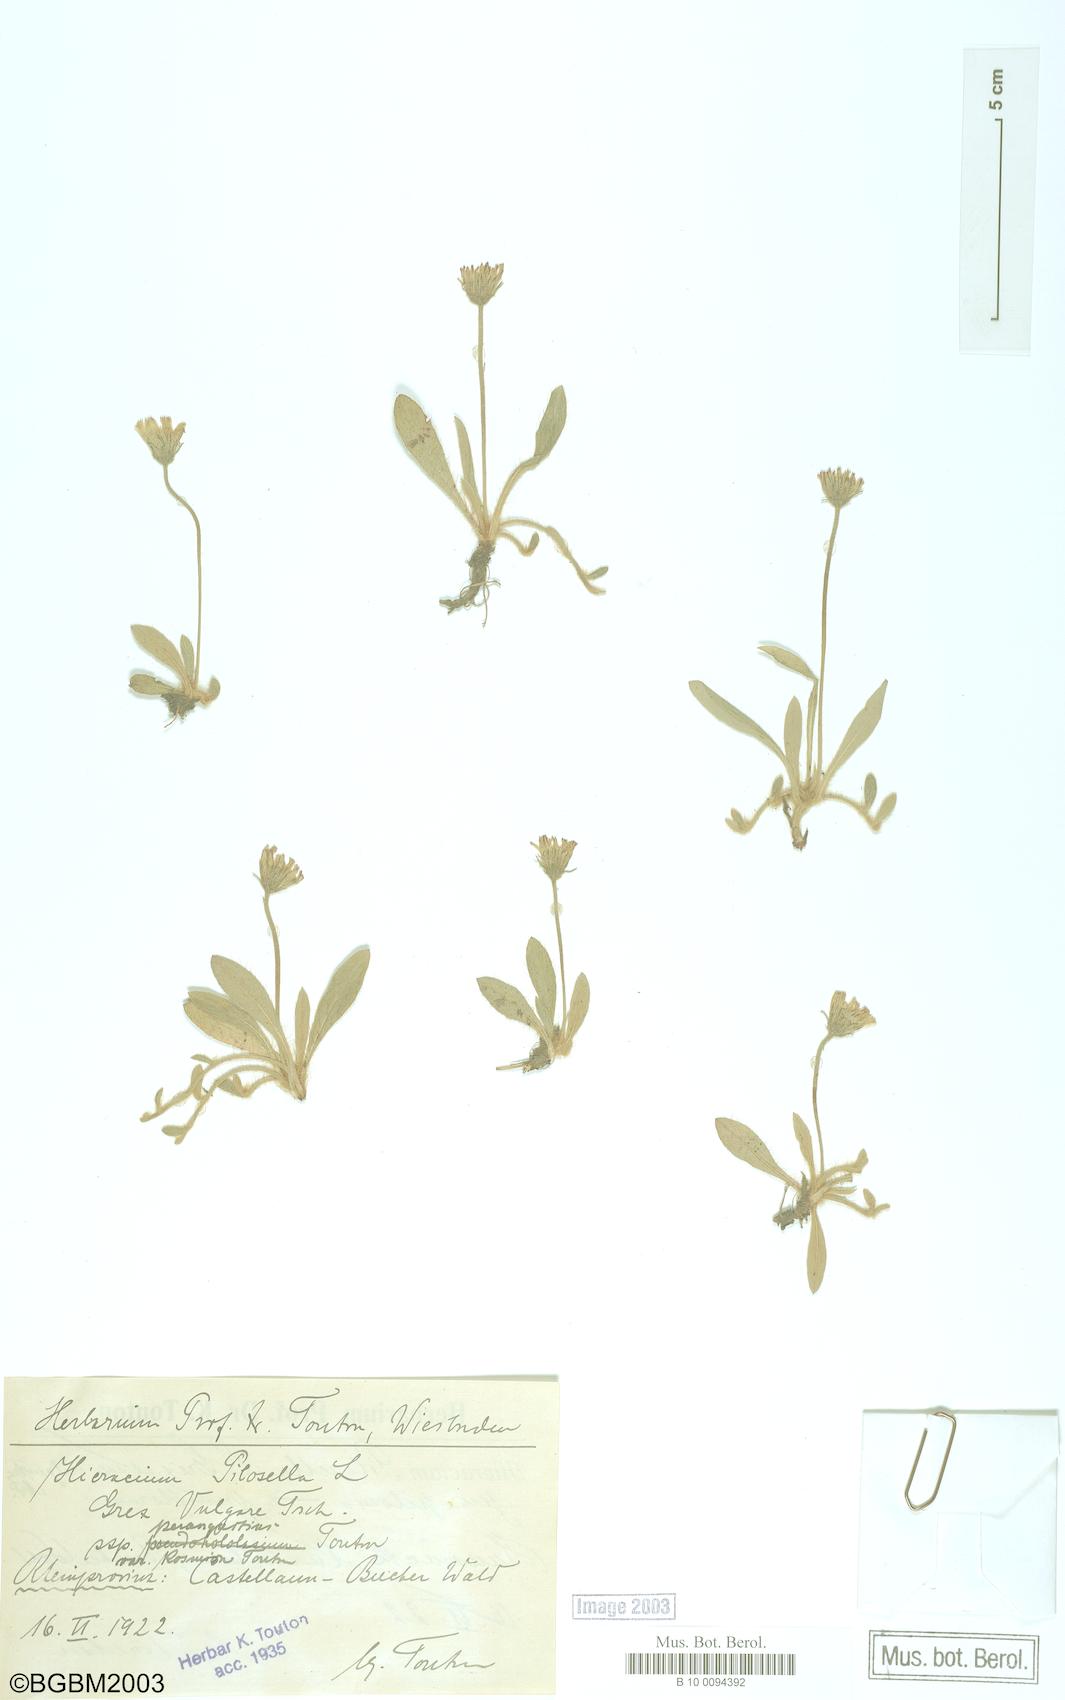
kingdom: Plantae
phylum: Tracheophyta
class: Magnoliopsida
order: Asterales
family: Asteraceae
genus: Pilosella
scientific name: Pilosella officinarum
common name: Mouse-ear hawkweed
